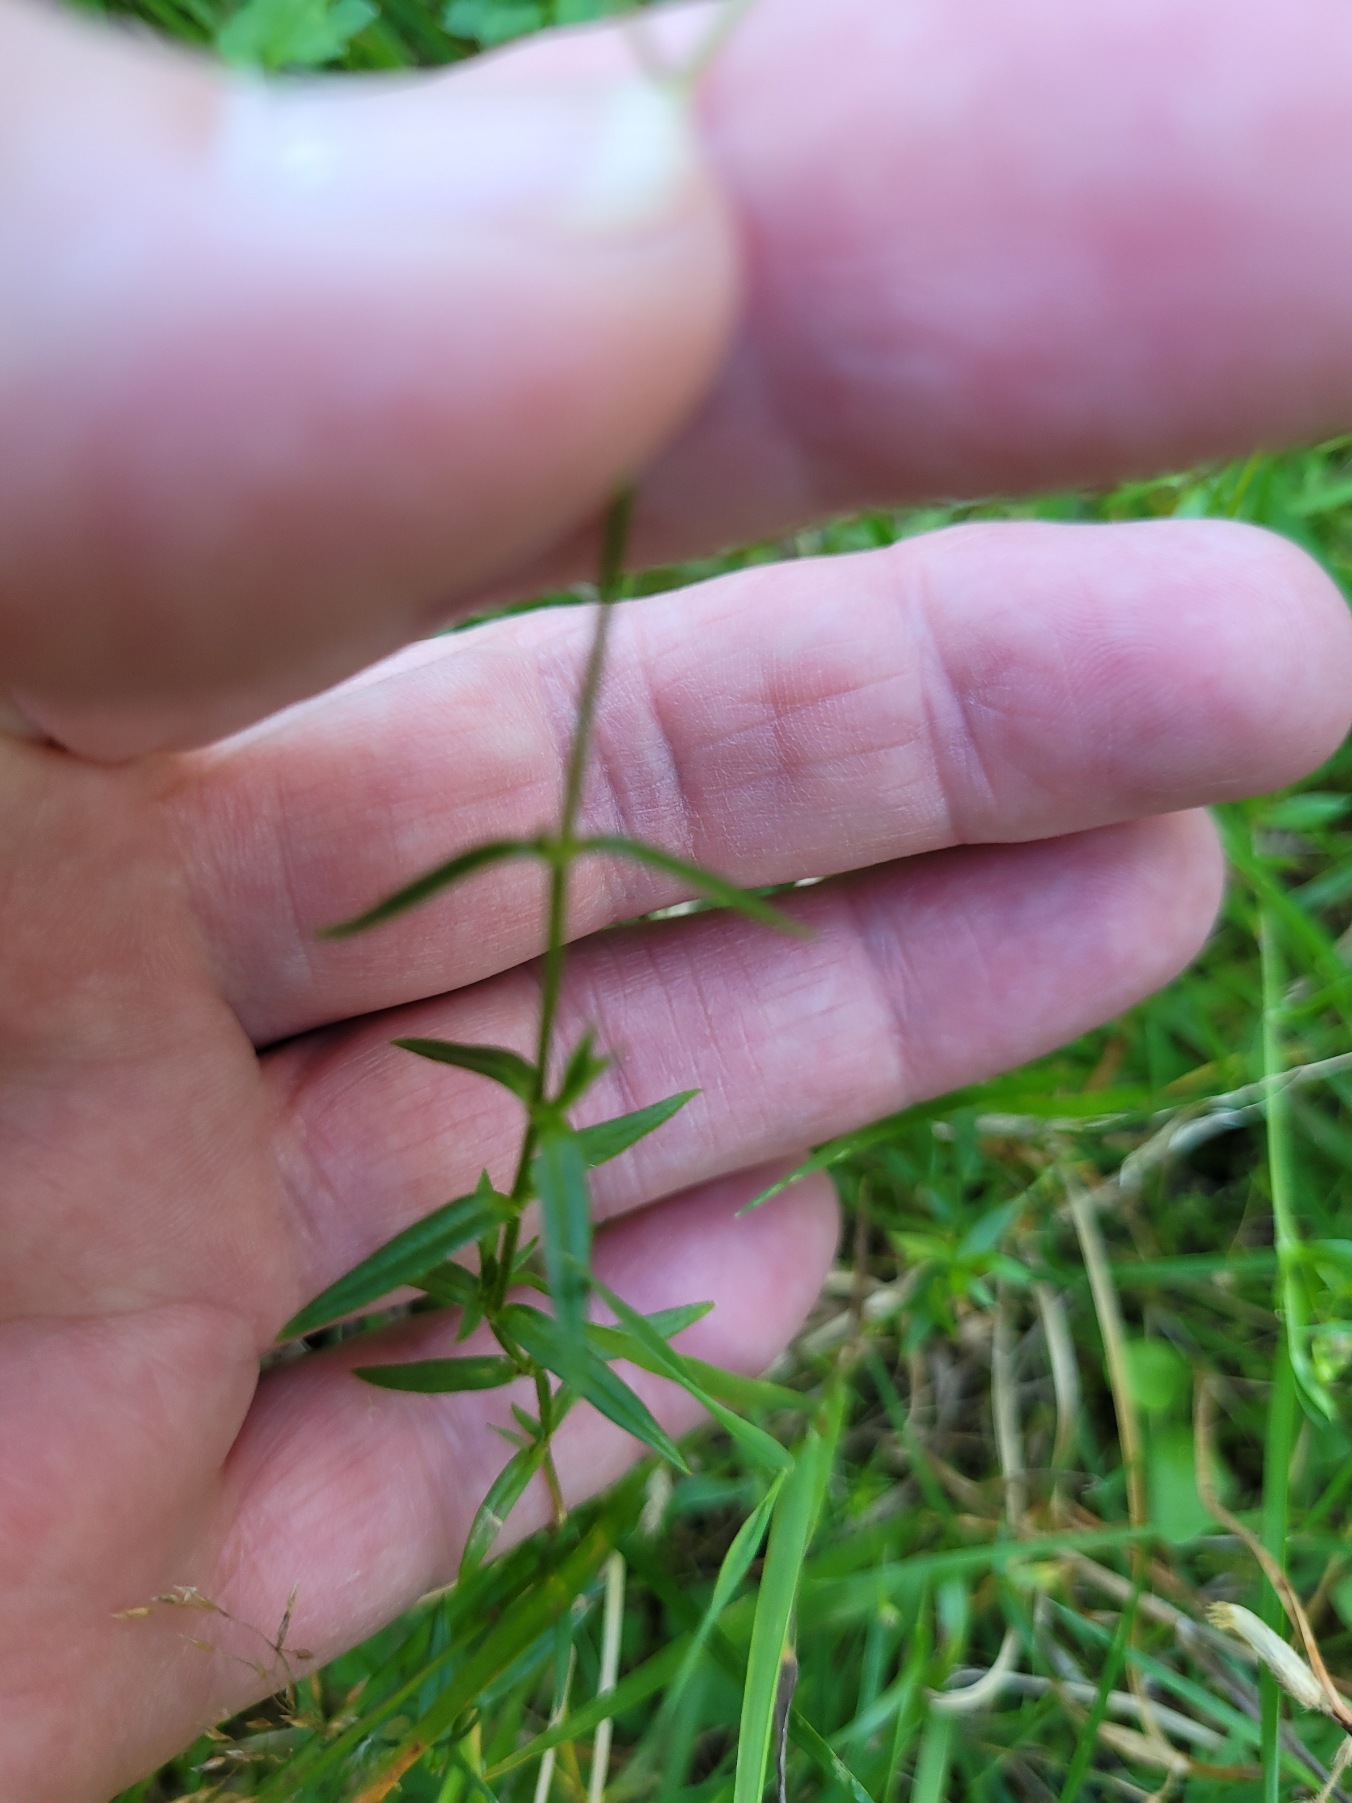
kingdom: Plantae
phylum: Tracheophyta
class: Magnoliopsida
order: Caryophyllales
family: Caryophyllaceae
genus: Stellaria
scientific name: Stellaria graminea
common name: Græsbladet fladstjerne
